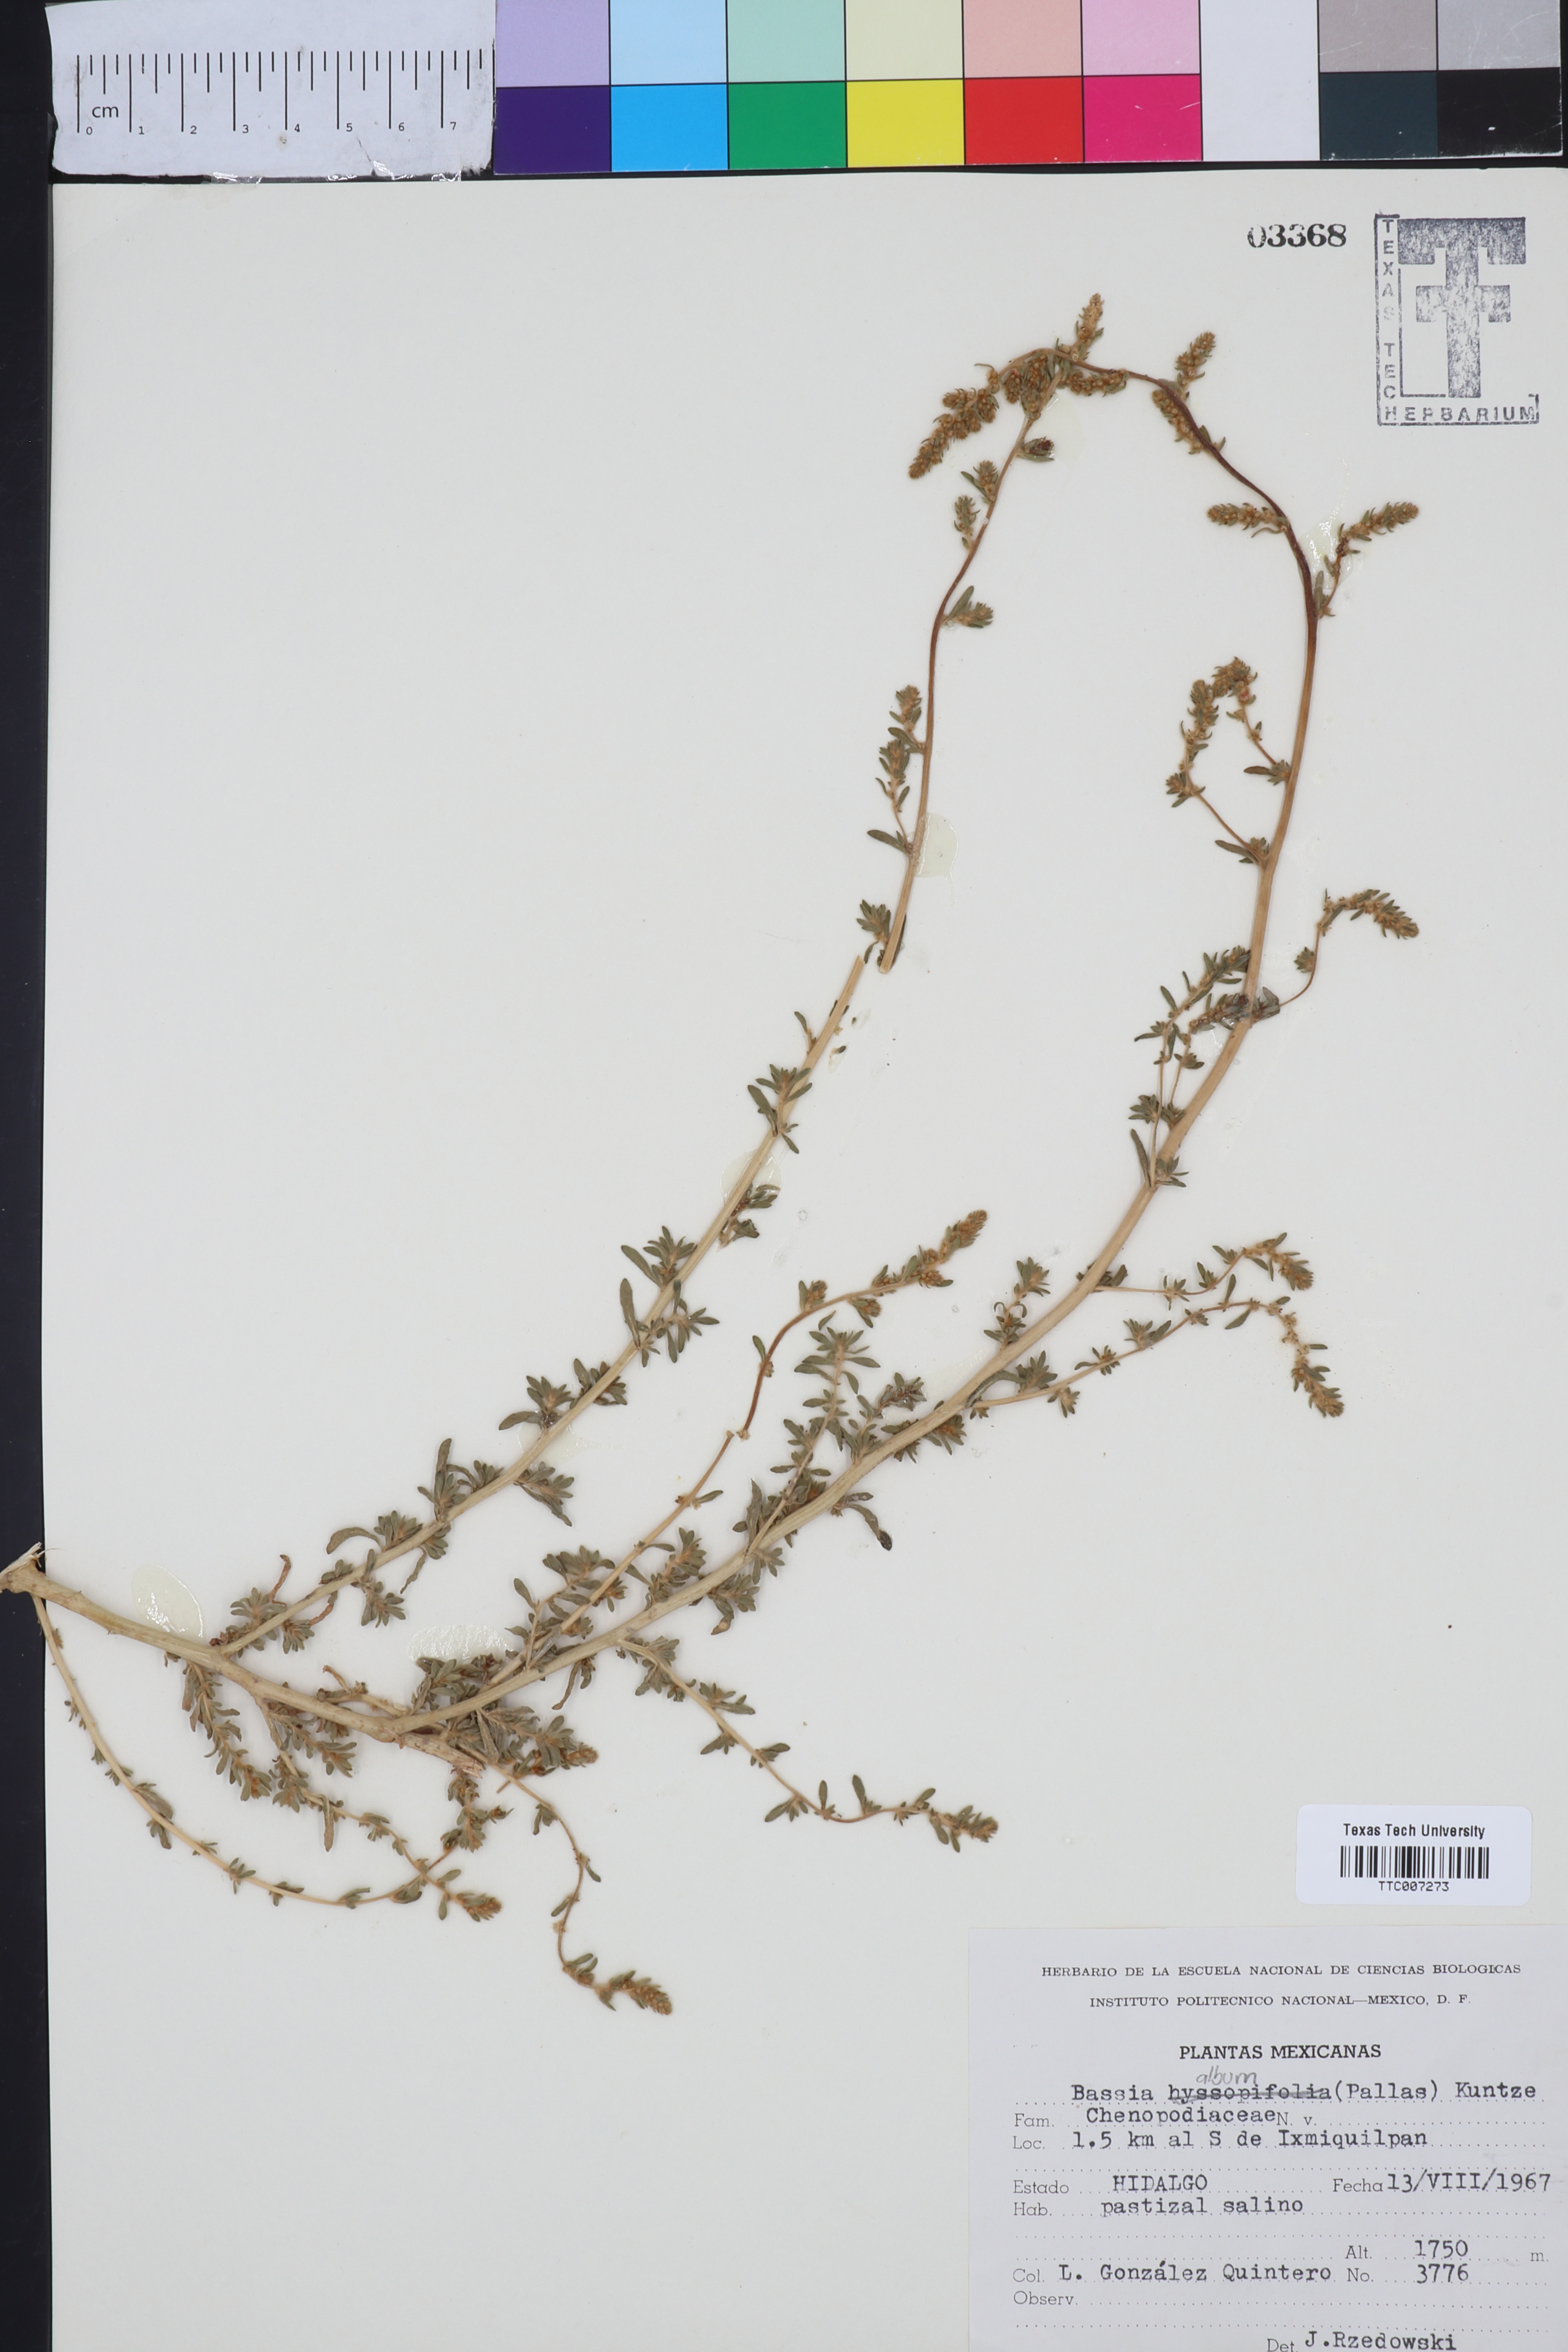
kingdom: Plantae
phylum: Tracheophyta
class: Magnoliopsida
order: Caryophyllales
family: Amaranthaceae
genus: Bassia
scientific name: Bassia hyssopifolia
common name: Fivehorn smotherweed
